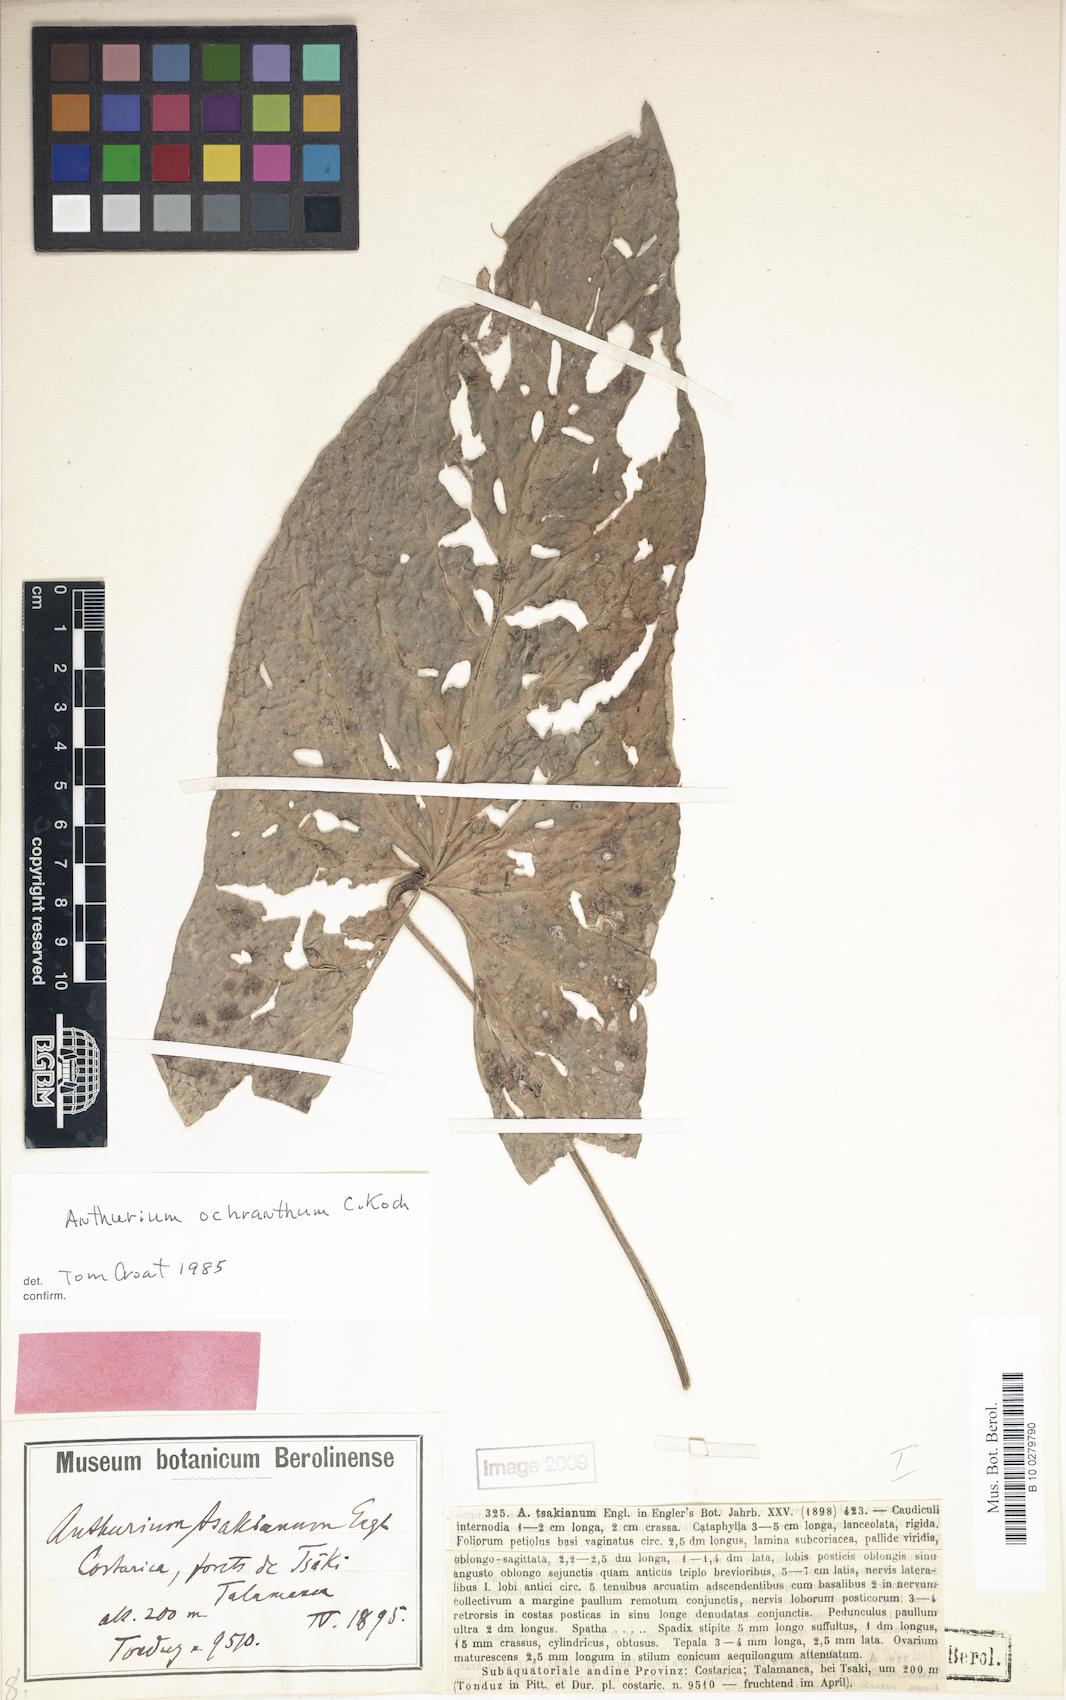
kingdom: Plantae
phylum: Tracheophyta
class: Liliopsida
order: Alismatales
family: Araceae
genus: Anthurium
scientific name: Anthurium ochranthum
